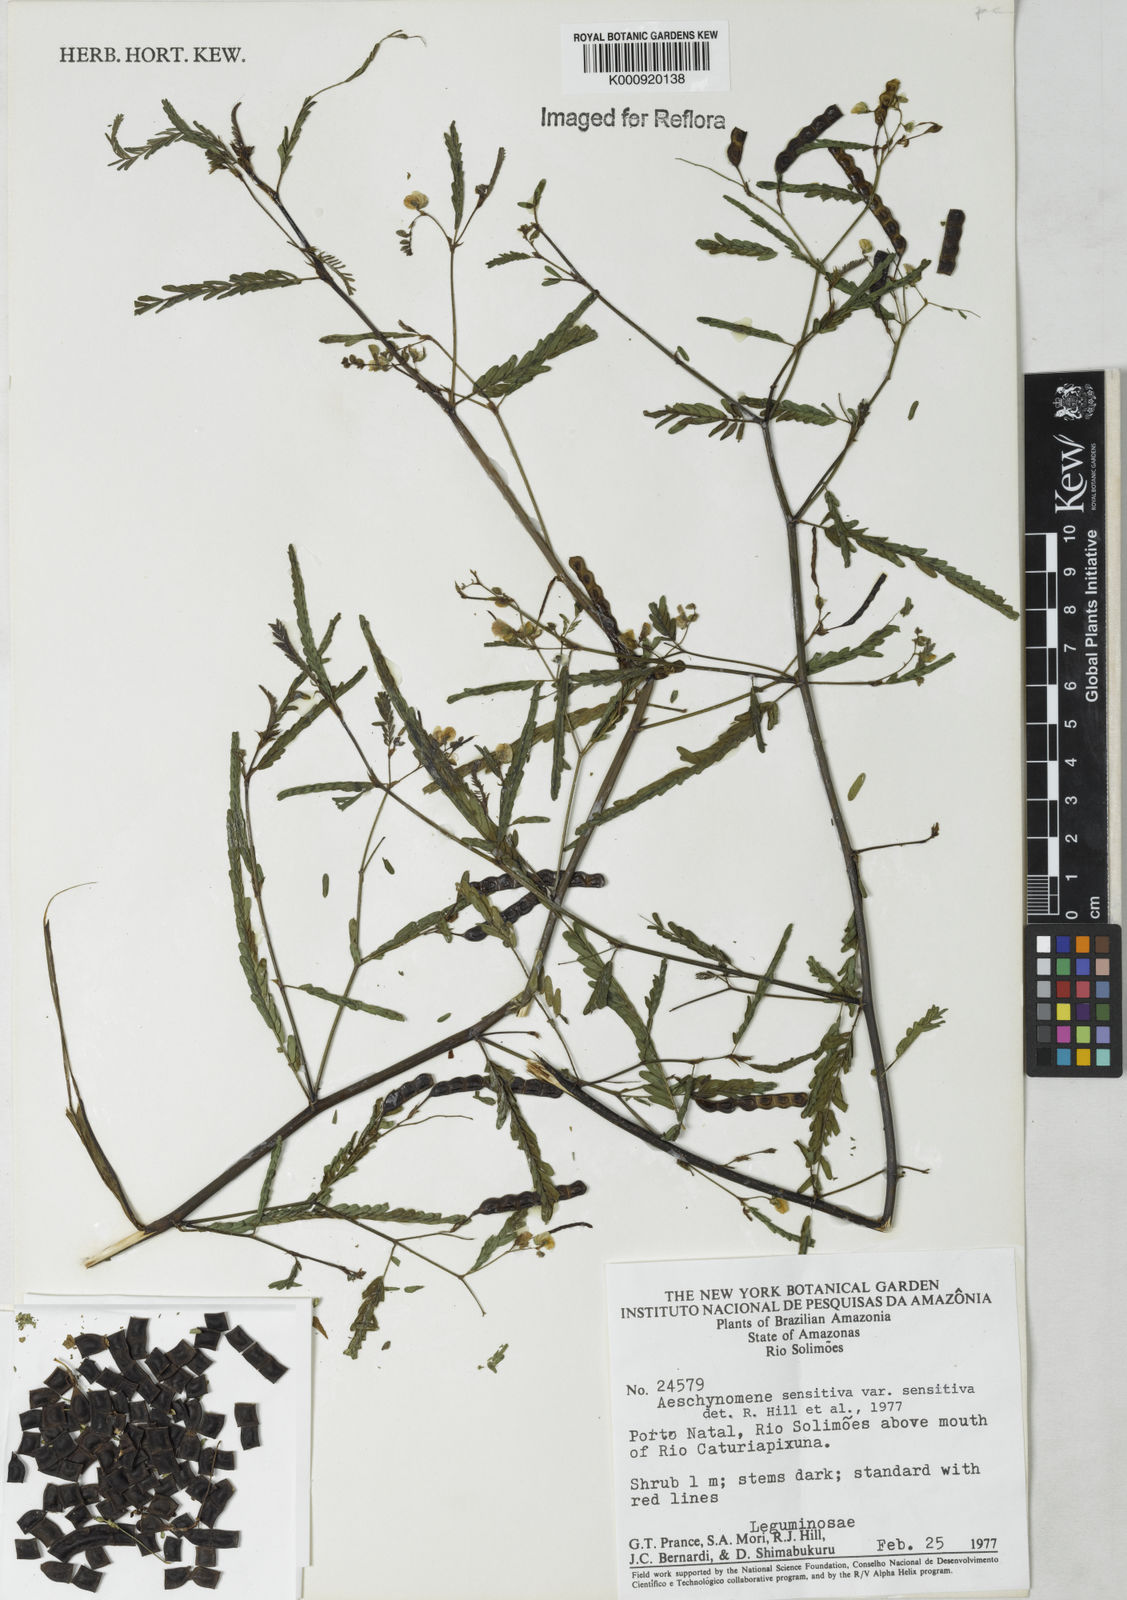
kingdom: Plantae
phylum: Tracheophyta
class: Magnoliopsida
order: Fabales
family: Fabaceae
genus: Aeschynomene
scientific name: Aeschynomene sensitiva
